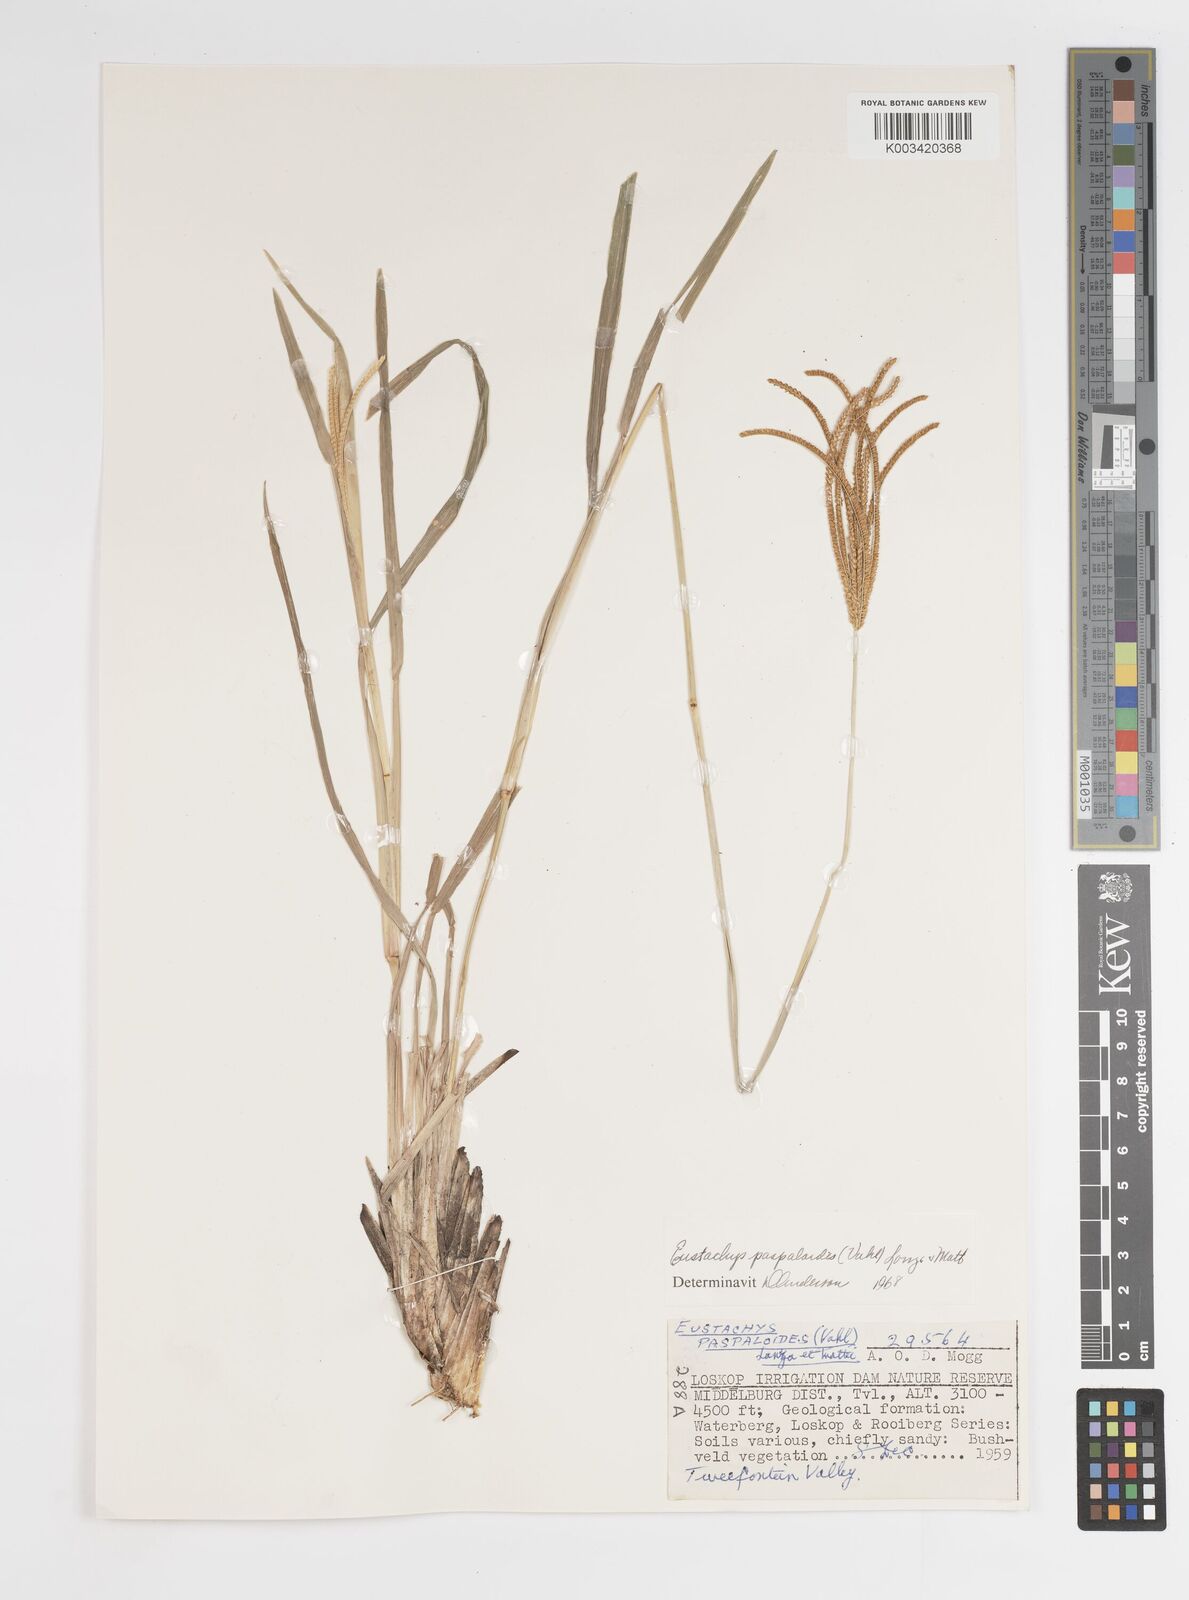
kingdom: Plantae
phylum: Tracheophyta
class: Liliopsida
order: Poales
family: Poaceae
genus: Eustachys
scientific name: Eustachys paspaloides
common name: Caribbean fingergrass
